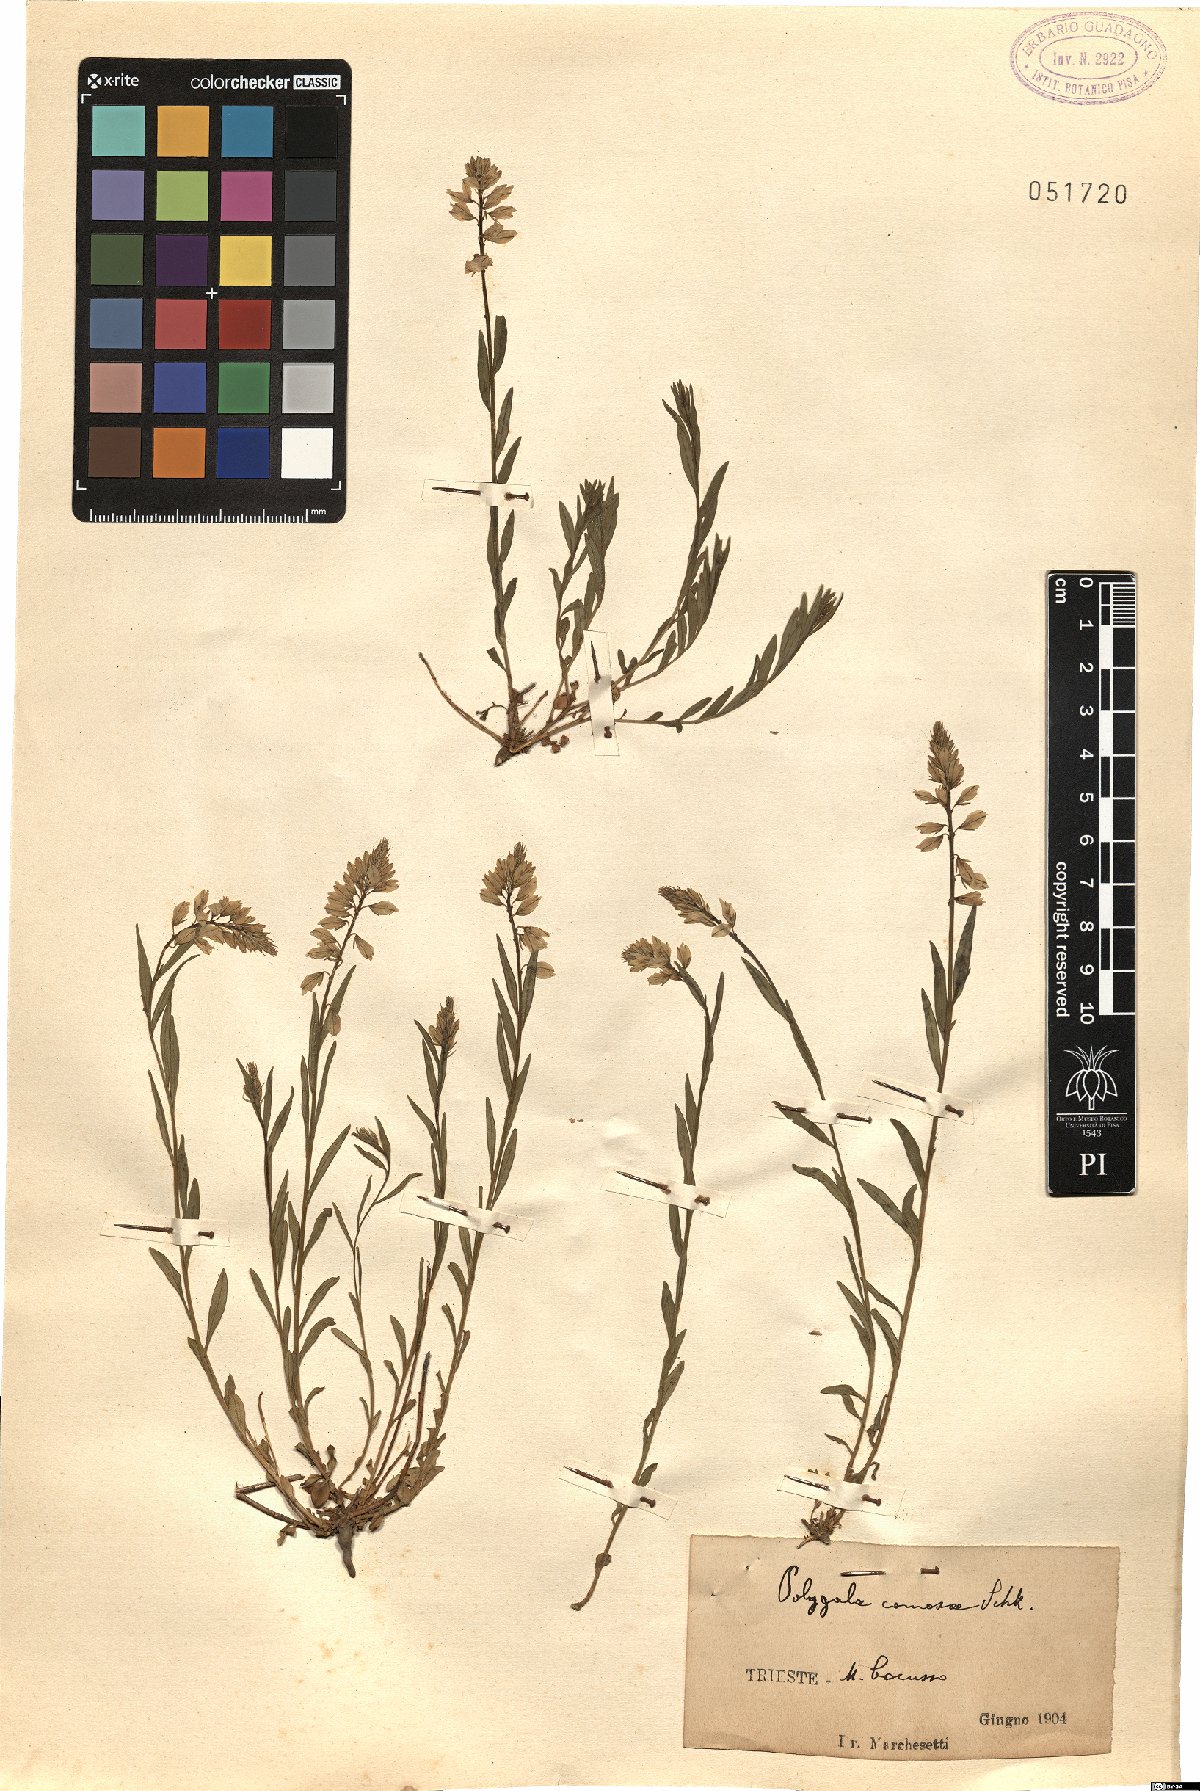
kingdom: Plantae
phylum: Tracheophyta
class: Magnoliopsida
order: Fabales
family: Polygalaceae
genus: Polygala
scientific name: Polygala comosa
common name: Tufted milkwort
